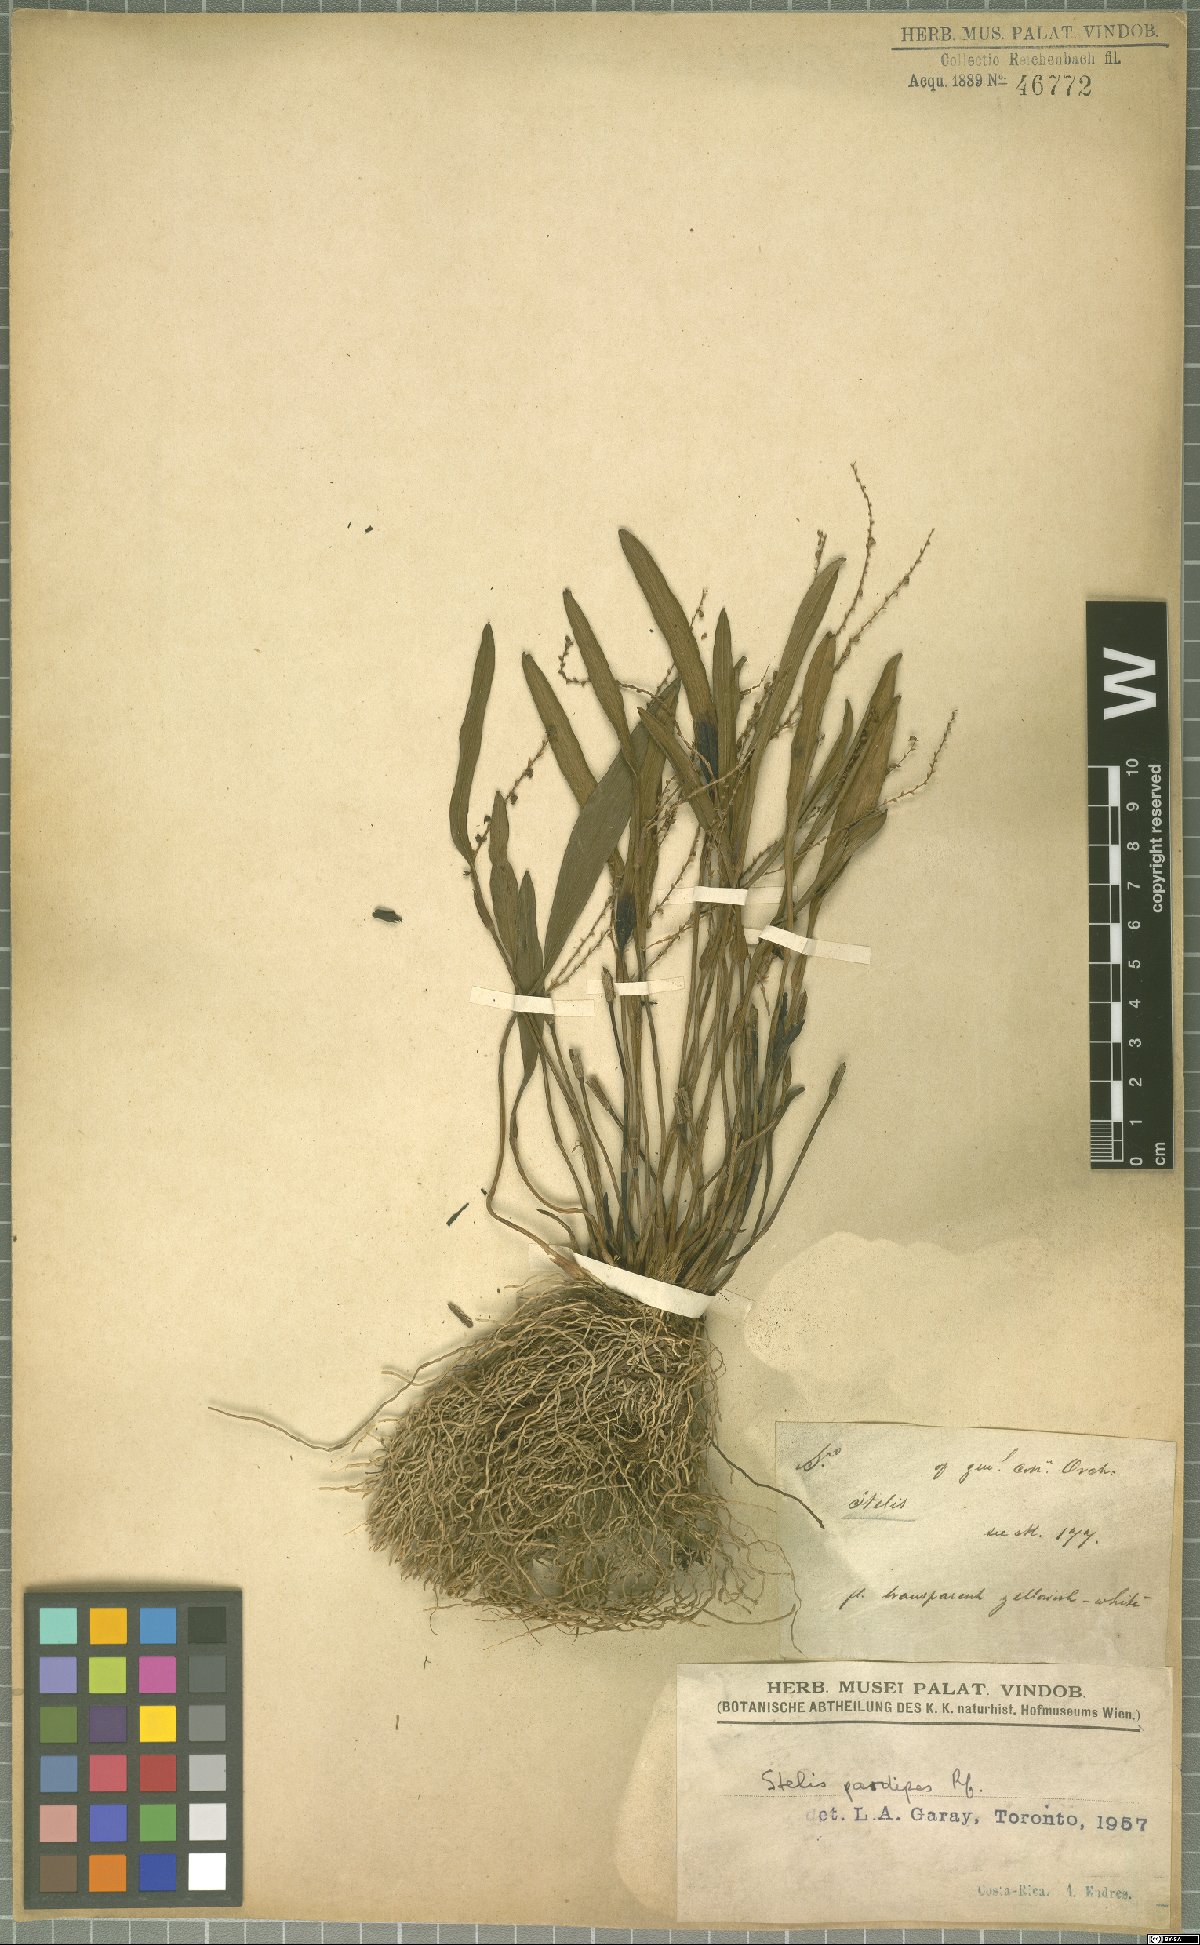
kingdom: Plantae
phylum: Tracheophyta
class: Liliopsida
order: Asparagales
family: Orchidaceae
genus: Stelis
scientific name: Stelis pardipes
